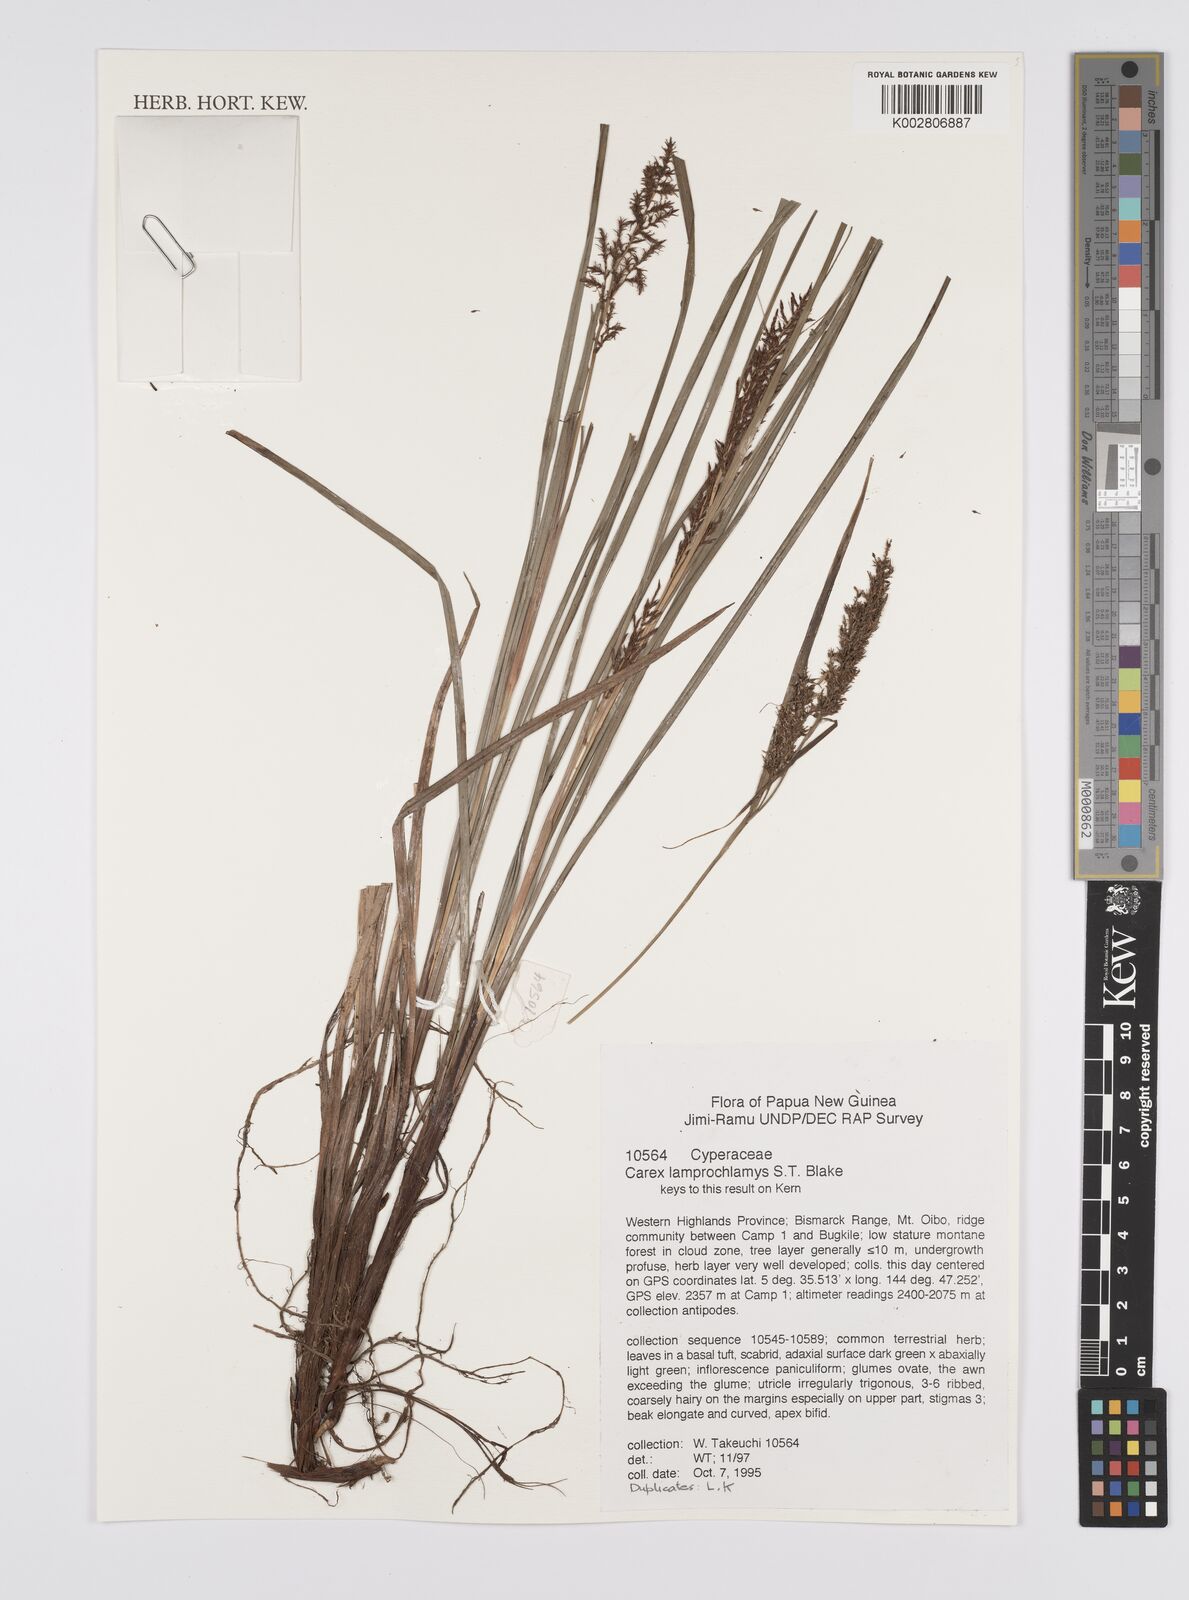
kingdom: Plantae
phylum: Tracheophyta
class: Liliopsida
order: Poales
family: Cyperaceae
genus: Carex
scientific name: Carex lamprochlamys
